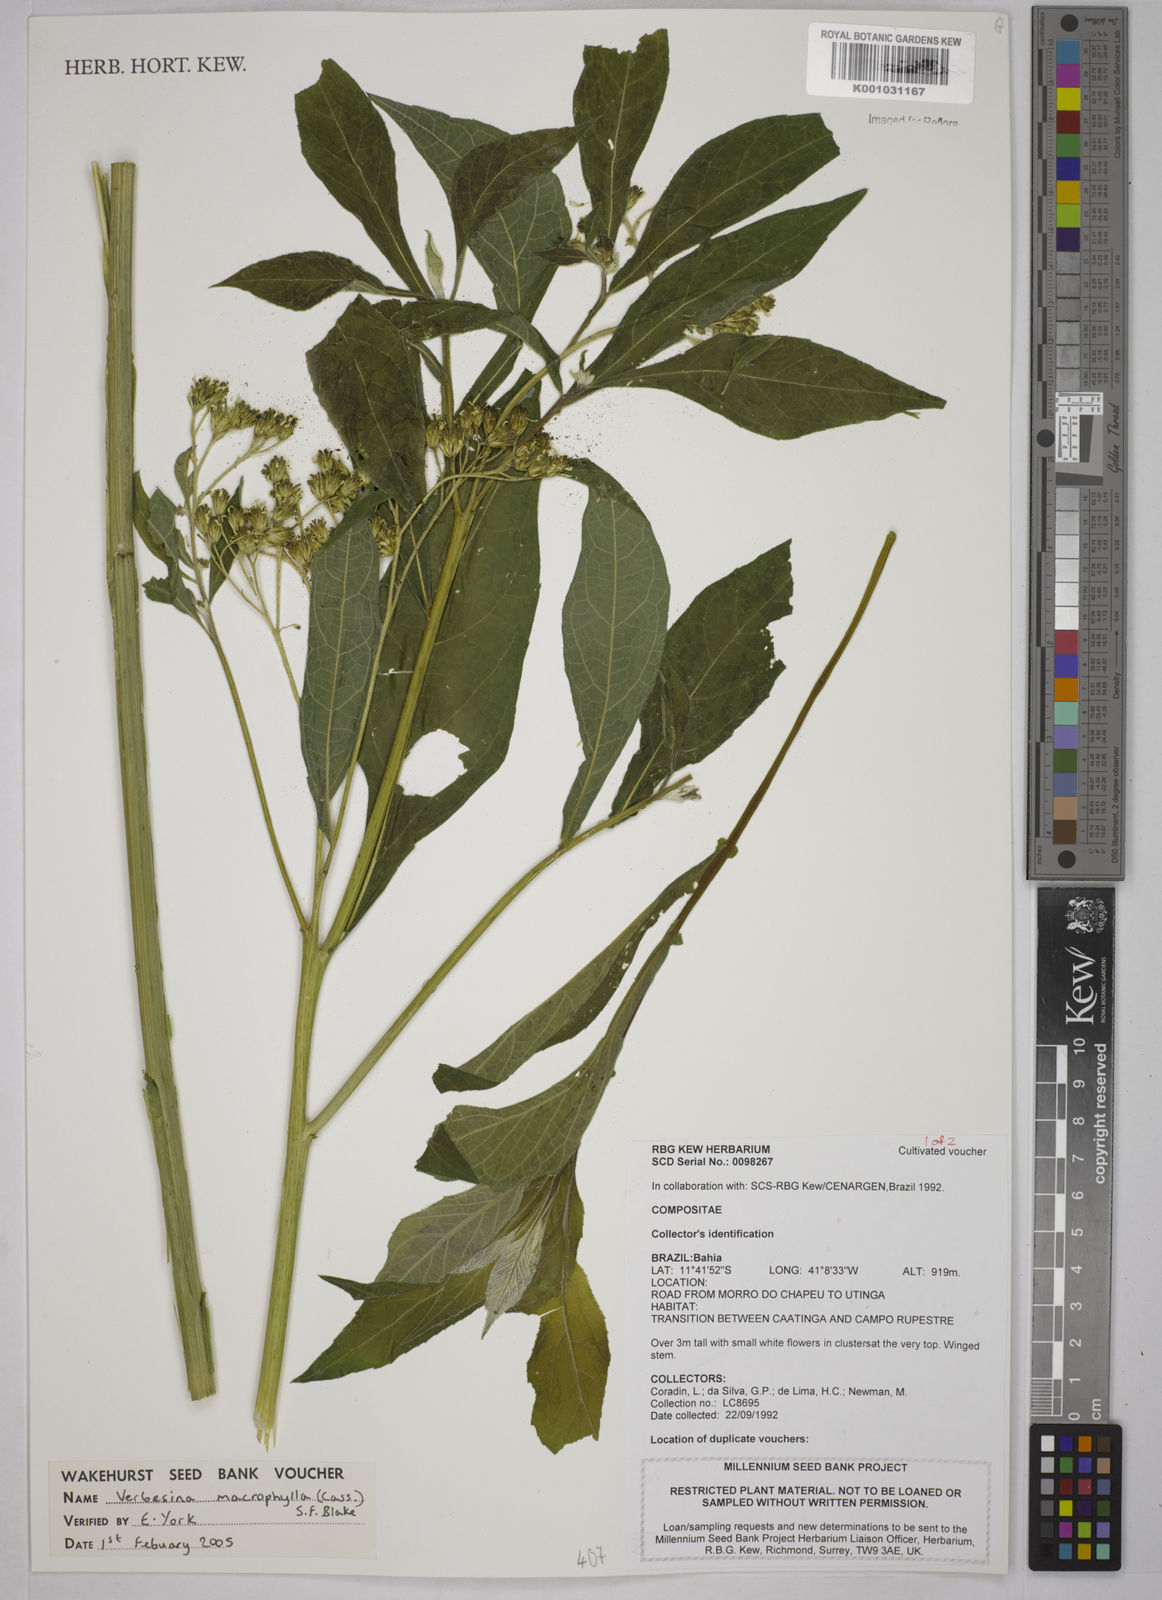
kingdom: Plantae
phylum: Tracheophyta
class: Magnoliopsida
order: Asterales
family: Asteraceae
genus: Verbesina
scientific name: Verbesina macrophylla
